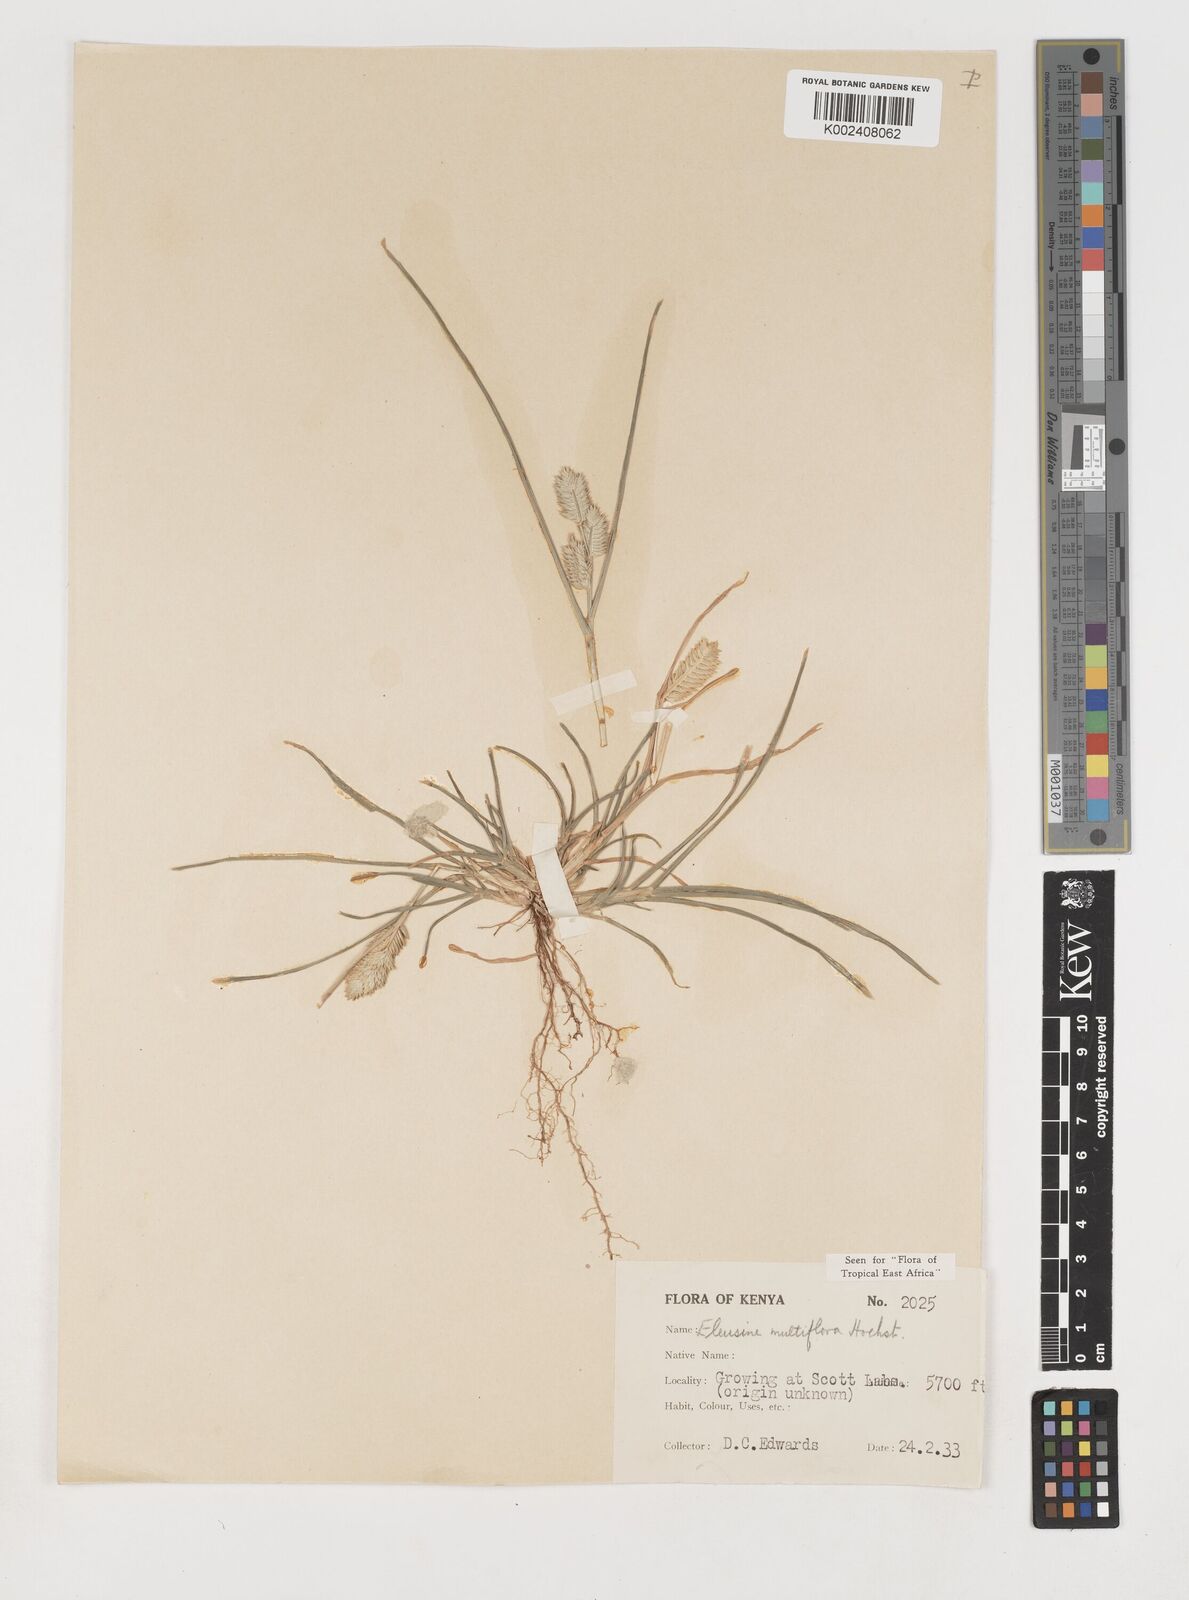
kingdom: Plantae
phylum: Tracheophyta
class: Liliopsida
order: Poales
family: Poaceae
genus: Eleusine
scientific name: Eleusine multiflora
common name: Fat-spiked yard-grass
